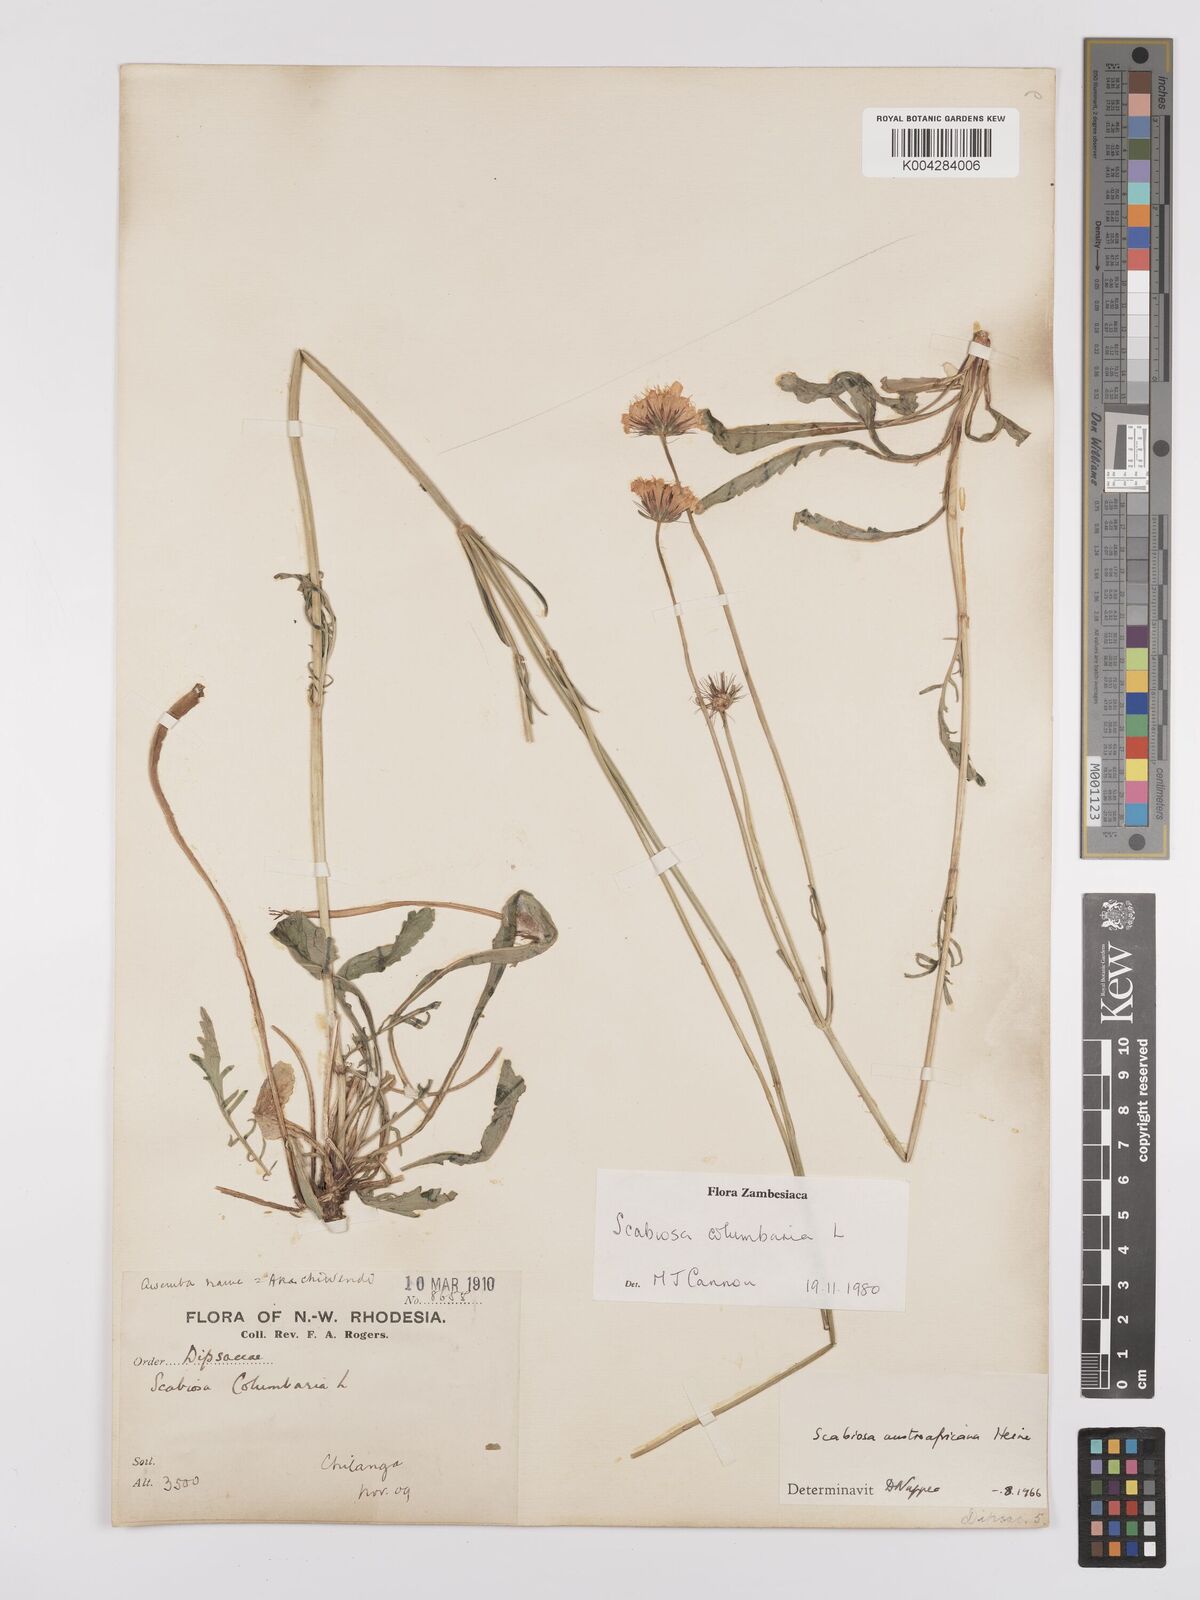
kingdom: Plantae
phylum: Tracheophyta
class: Magnoliopsida
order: Dipsacales
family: Caprifoliaceae
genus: Scabiosa
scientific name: Scabiosa austroafricana
